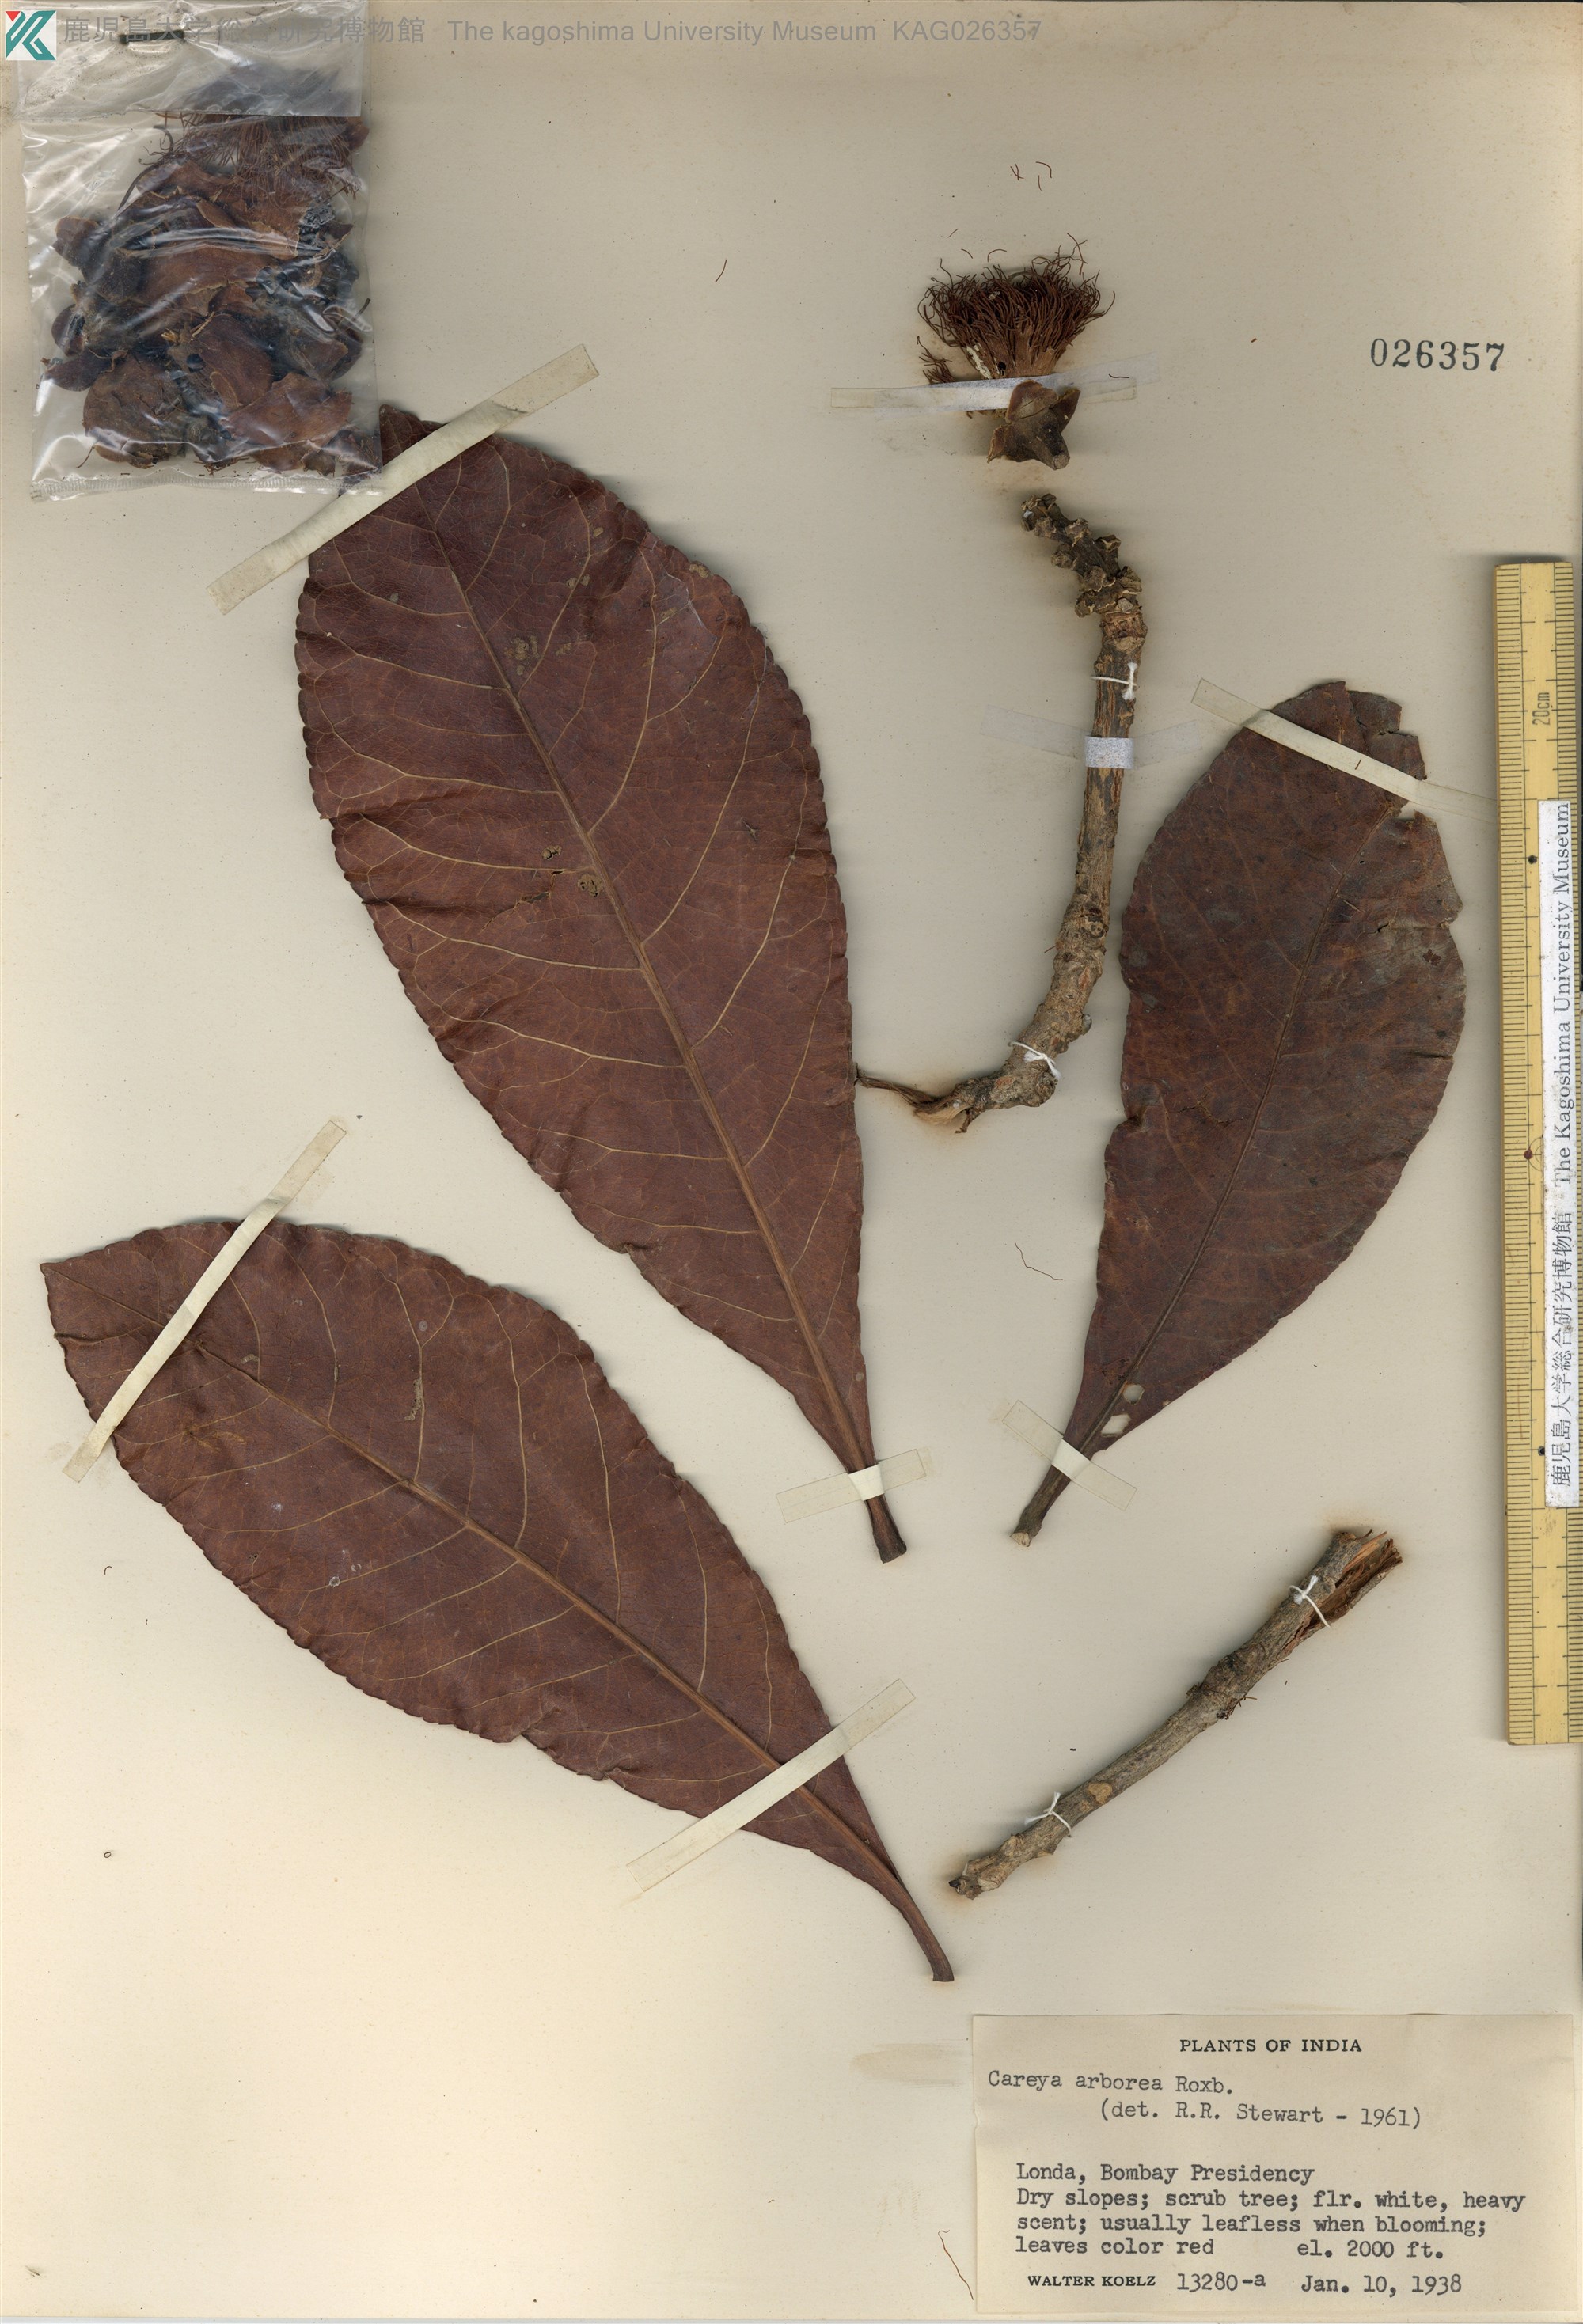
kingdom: Plantae
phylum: Tracheophyta
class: Magnoliopsida
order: Ericales
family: Lecythidaceae
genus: Careya
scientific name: Careya arborea
